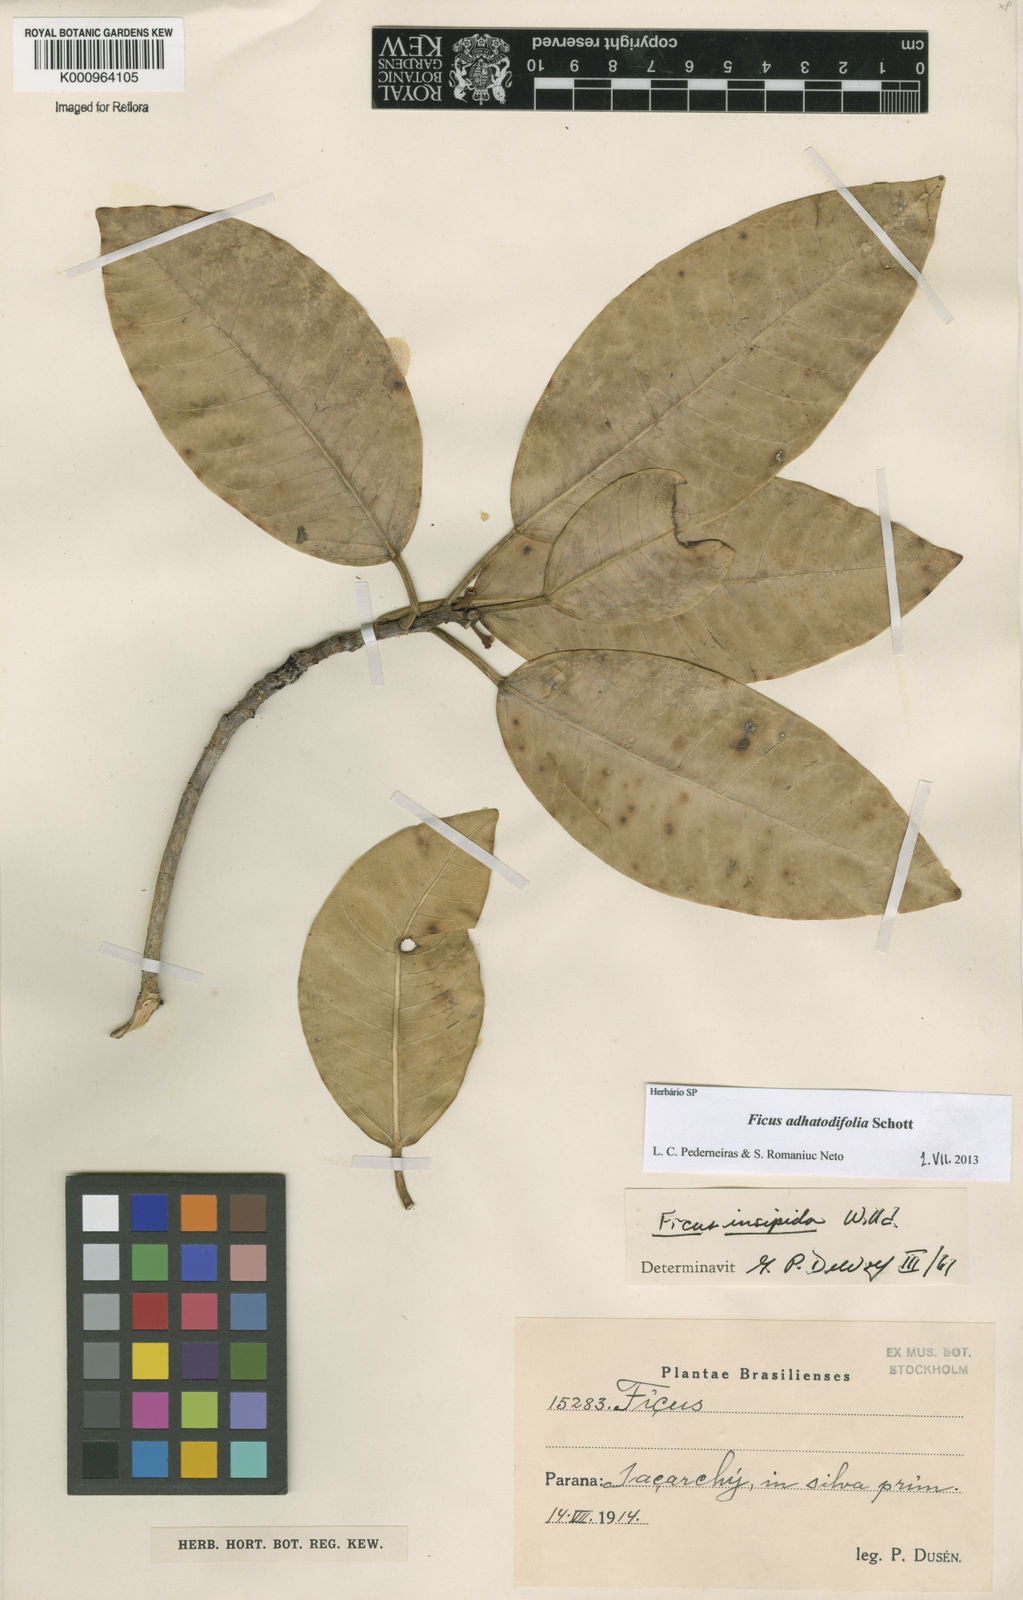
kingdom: Plantae
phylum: Tracheophyta
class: Magnoliopsida
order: Rosales
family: Moraceae
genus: Ficus
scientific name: Ficus
